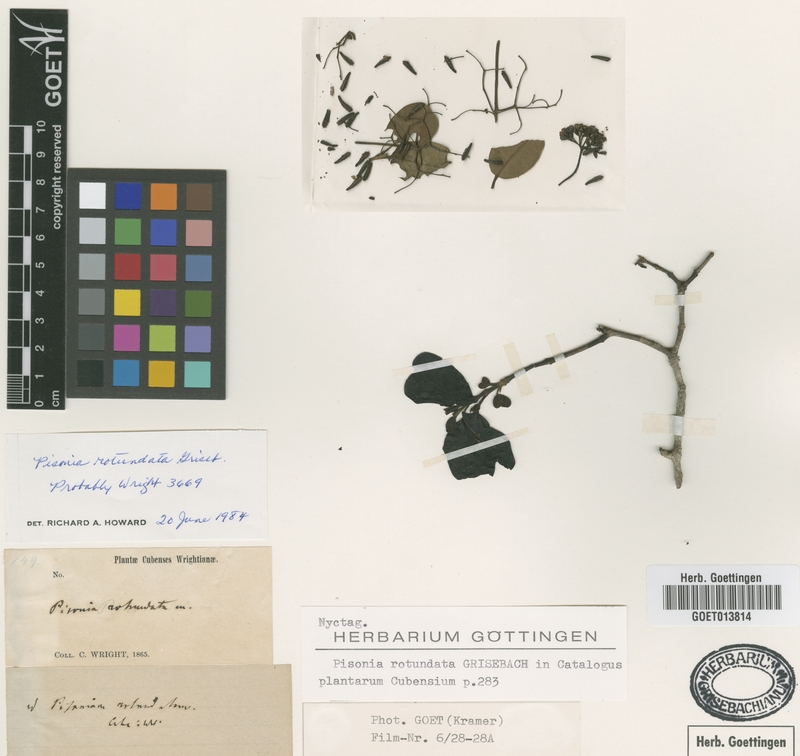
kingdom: Plantae
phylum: Tracheophyta
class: Magnoliopsida
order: Caryophyllales
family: Nyctaginaceae
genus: Pisonia
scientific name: Pisonia rotundata
